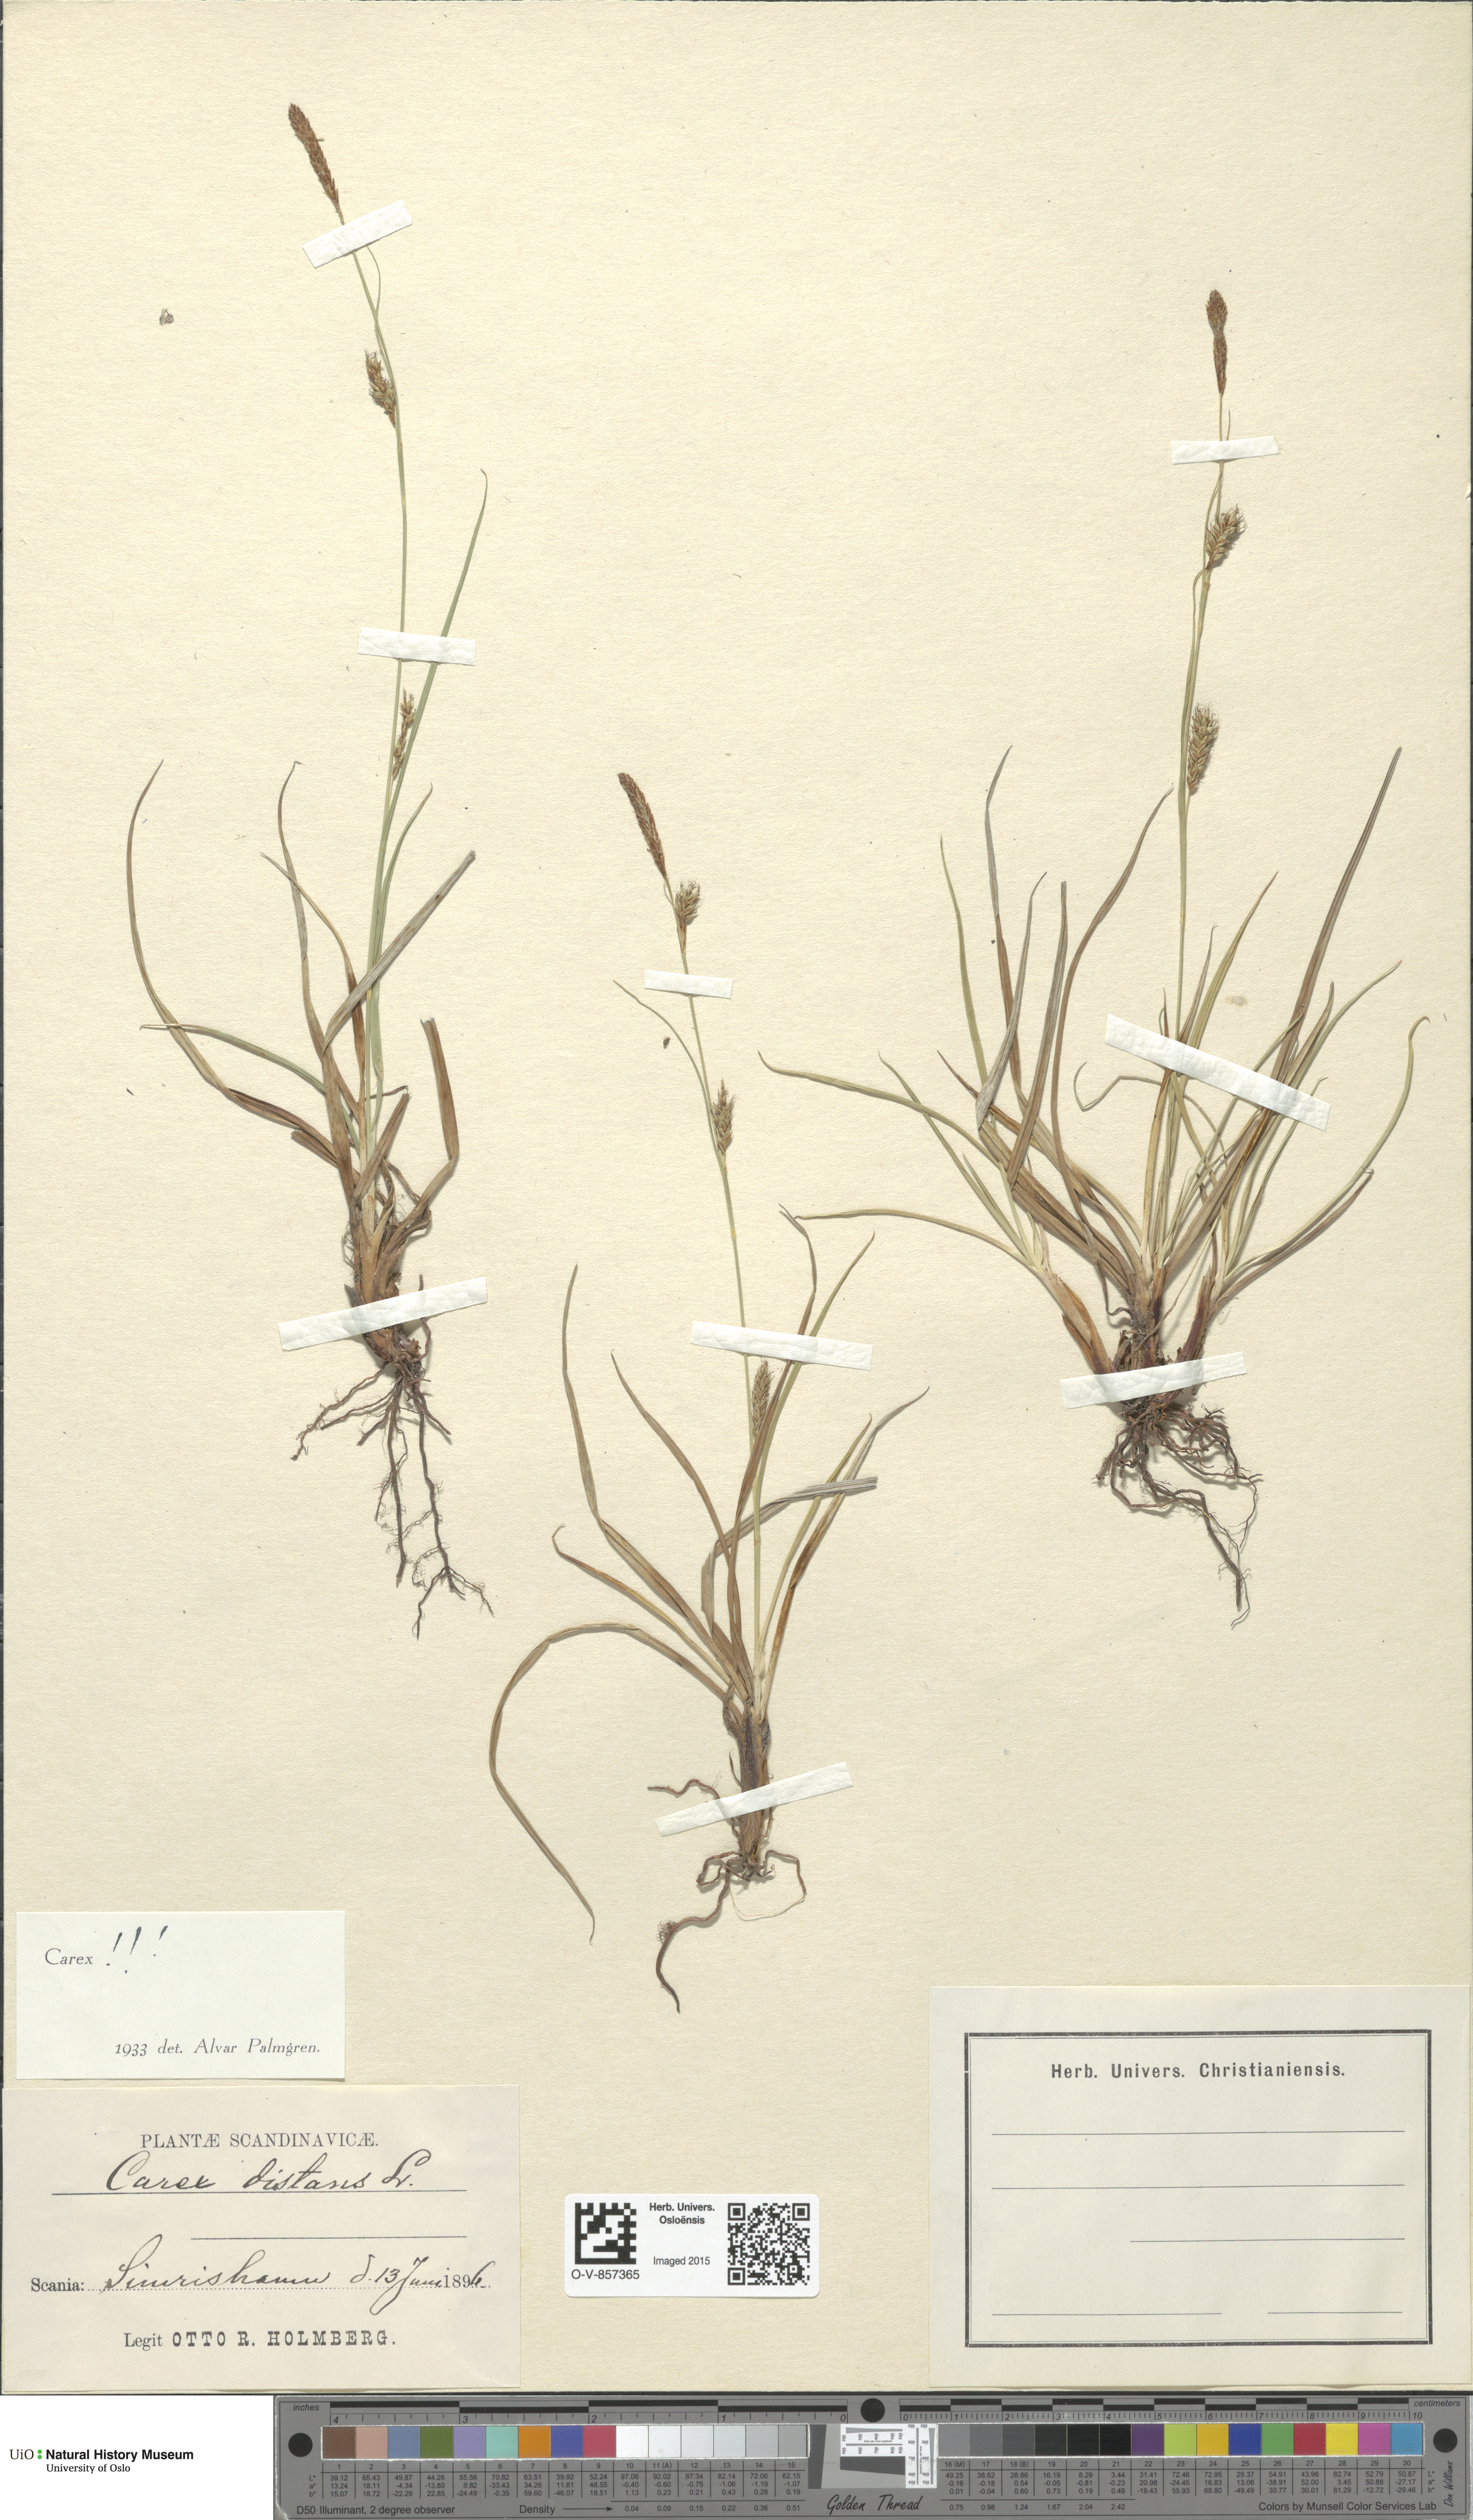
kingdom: Plantae
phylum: Tracheophyta
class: Liliopsida
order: Poales
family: Cyperaceae
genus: Carex
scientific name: Carex distans
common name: Distant sedge
